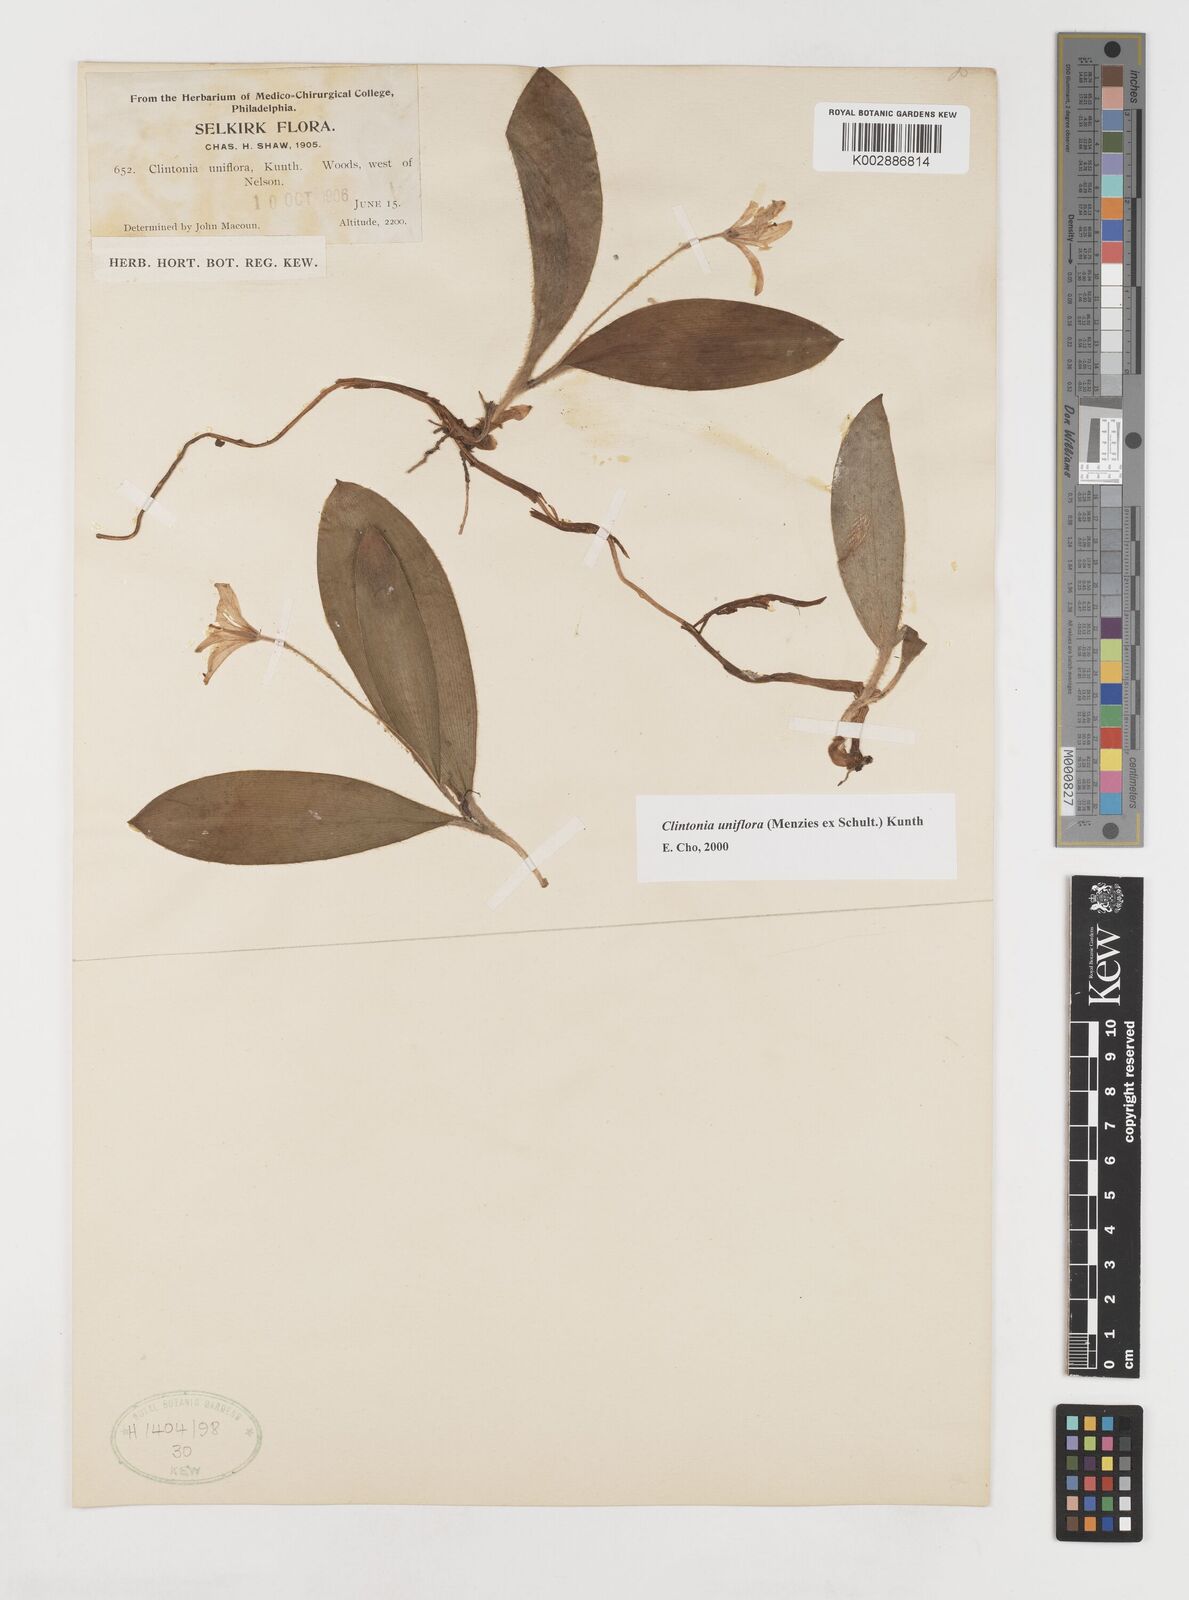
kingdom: Plantae
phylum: Tracheophyta
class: Liliopsida
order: Liliales
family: Liliaceae
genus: Clintonia
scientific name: Clintonia uniflora
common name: Queen's cup
